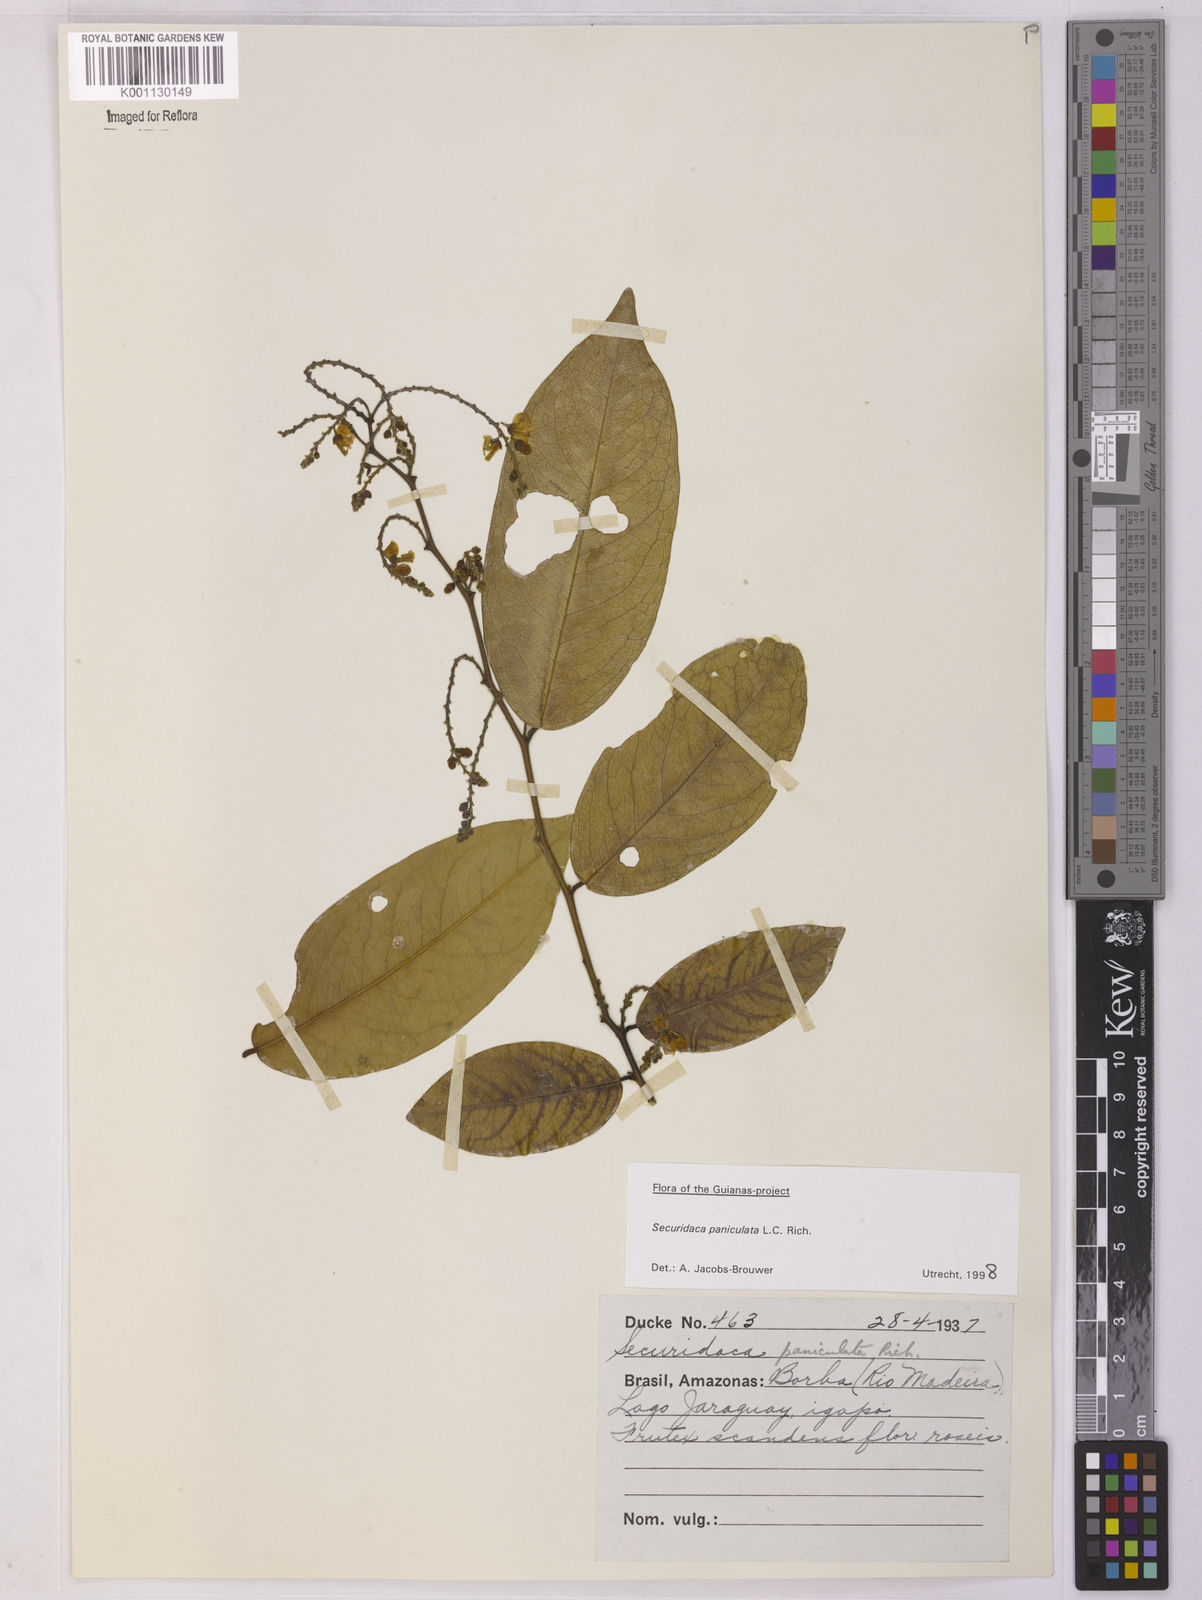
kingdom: Plantae
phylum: Tracheophyta
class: Magnoliopsida
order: Fabales
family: Polygalaceae
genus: Securidaca
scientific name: Securidaca paniculata
